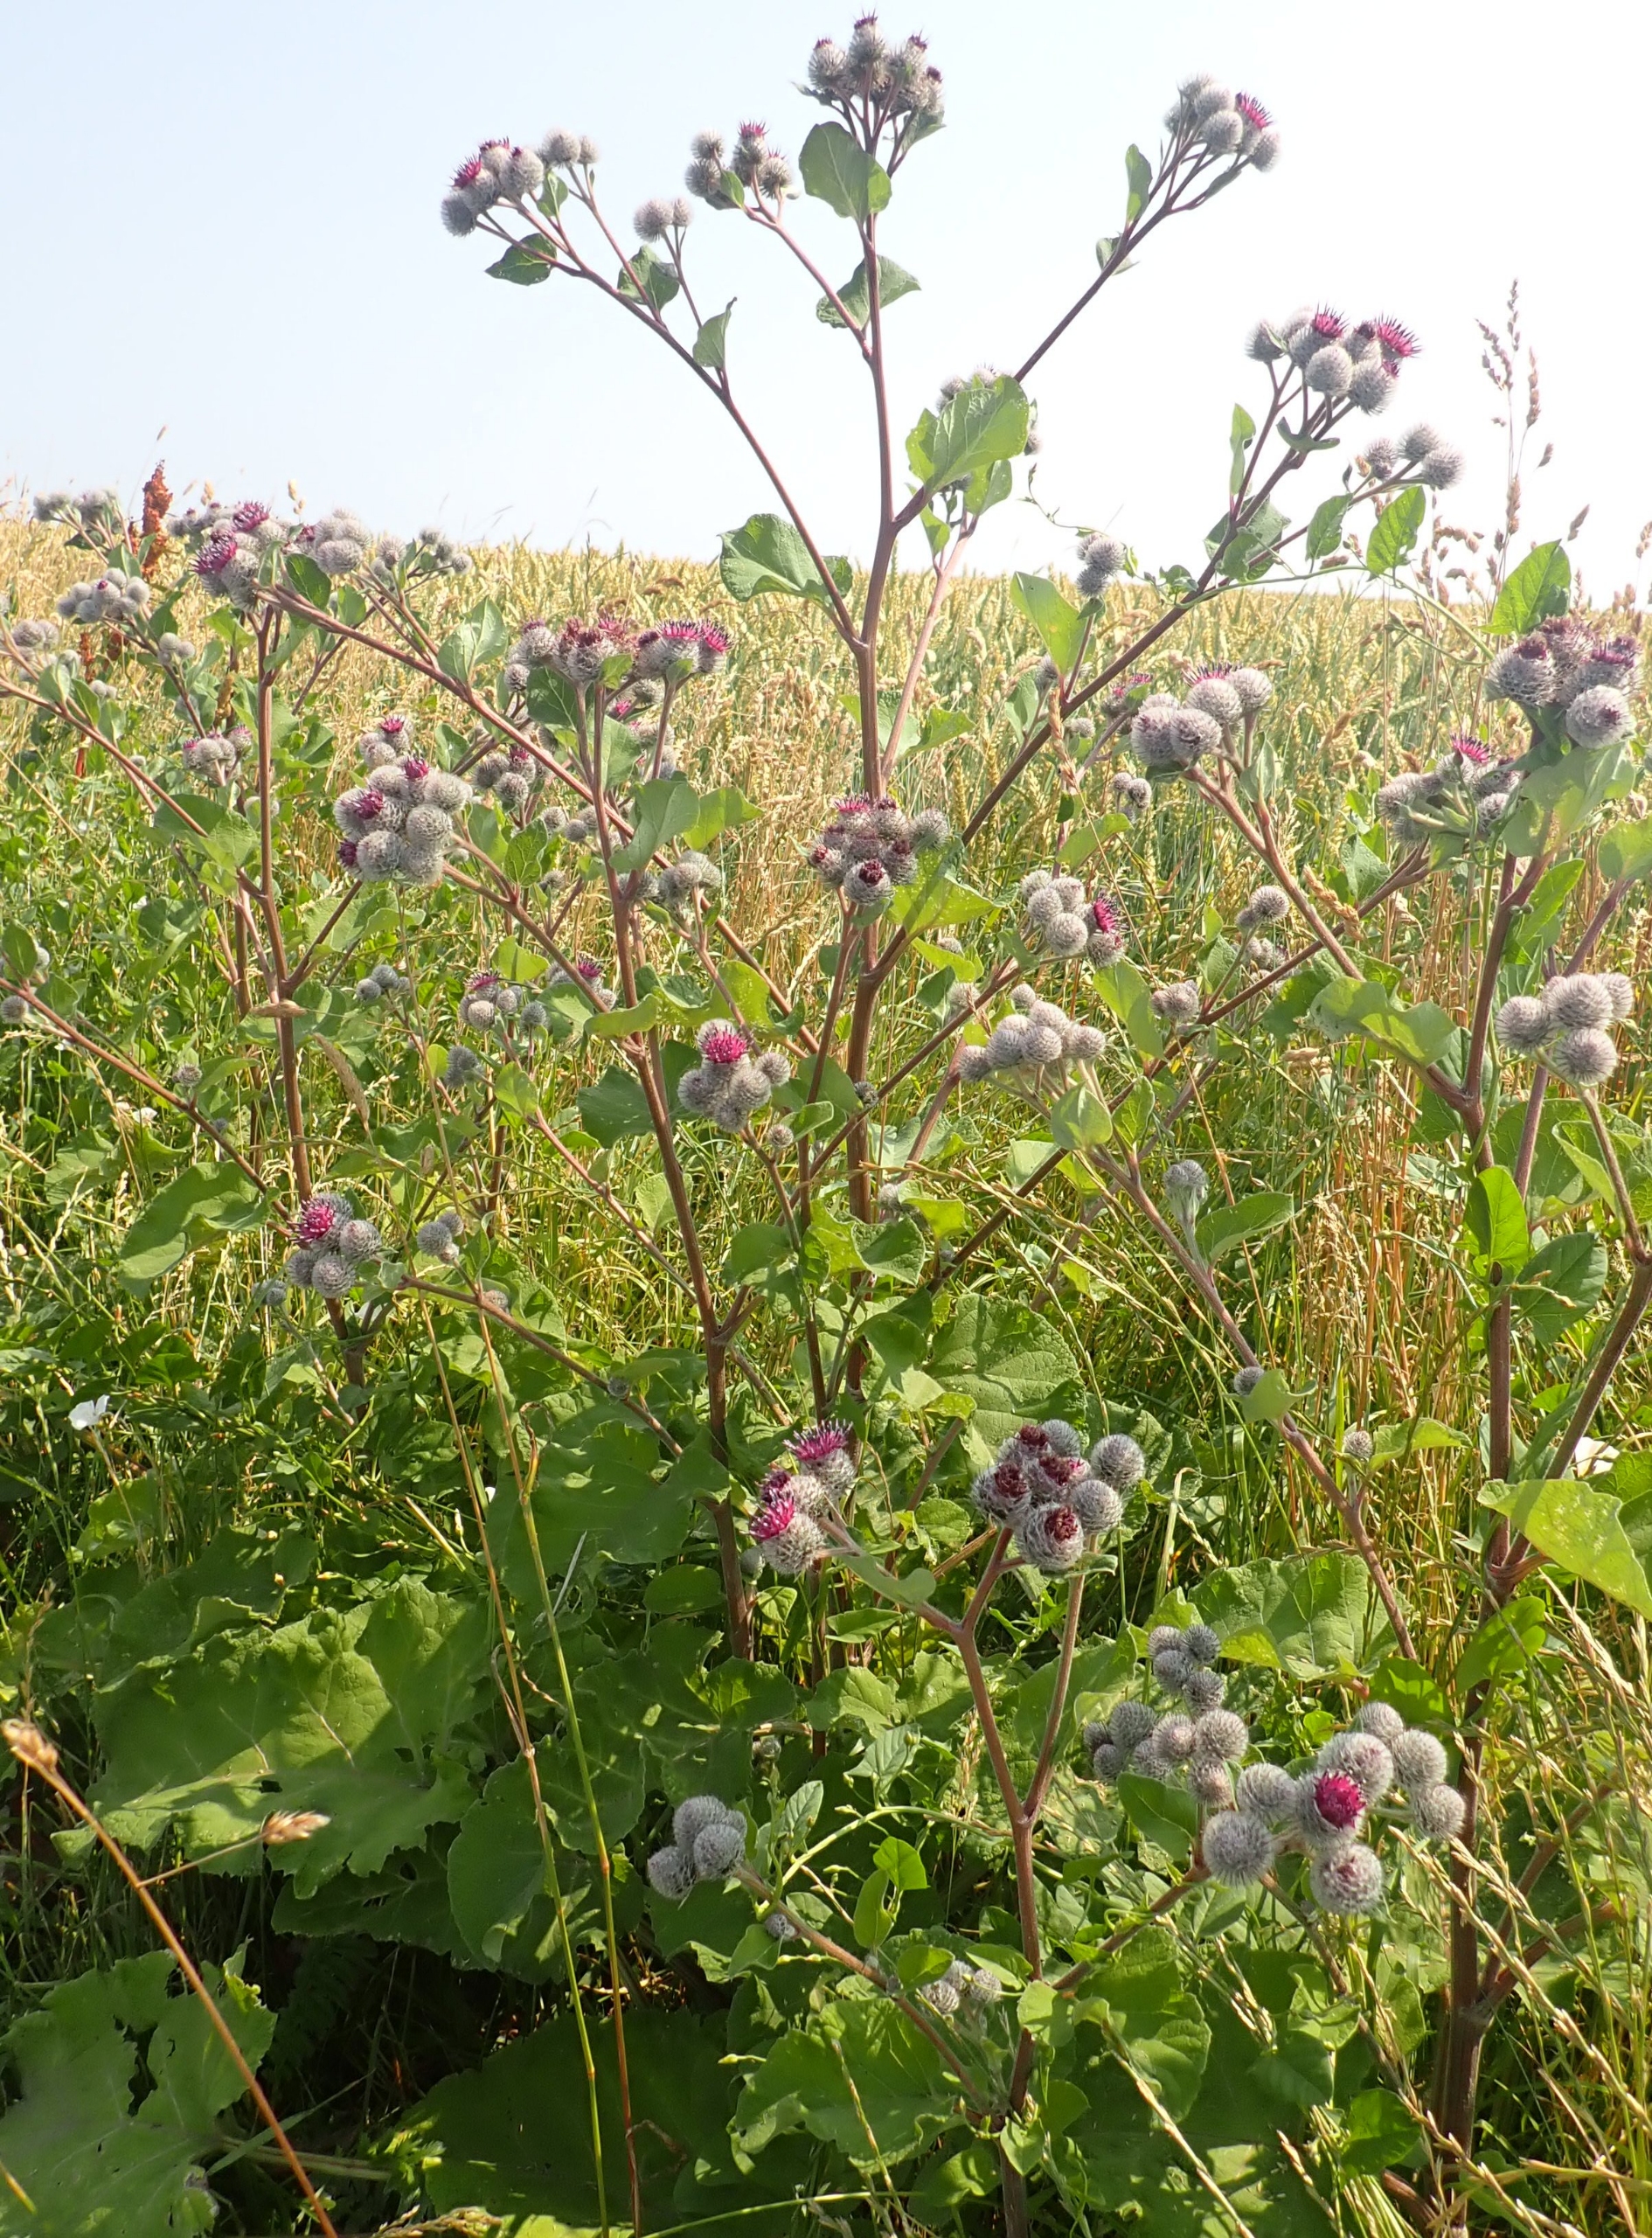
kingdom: Plantae
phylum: Tracheophyta
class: Magnoliopsida
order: Asterales
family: Asteraceae
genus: Arctium
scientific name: Arctium tomentosum
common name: Filtet burre
